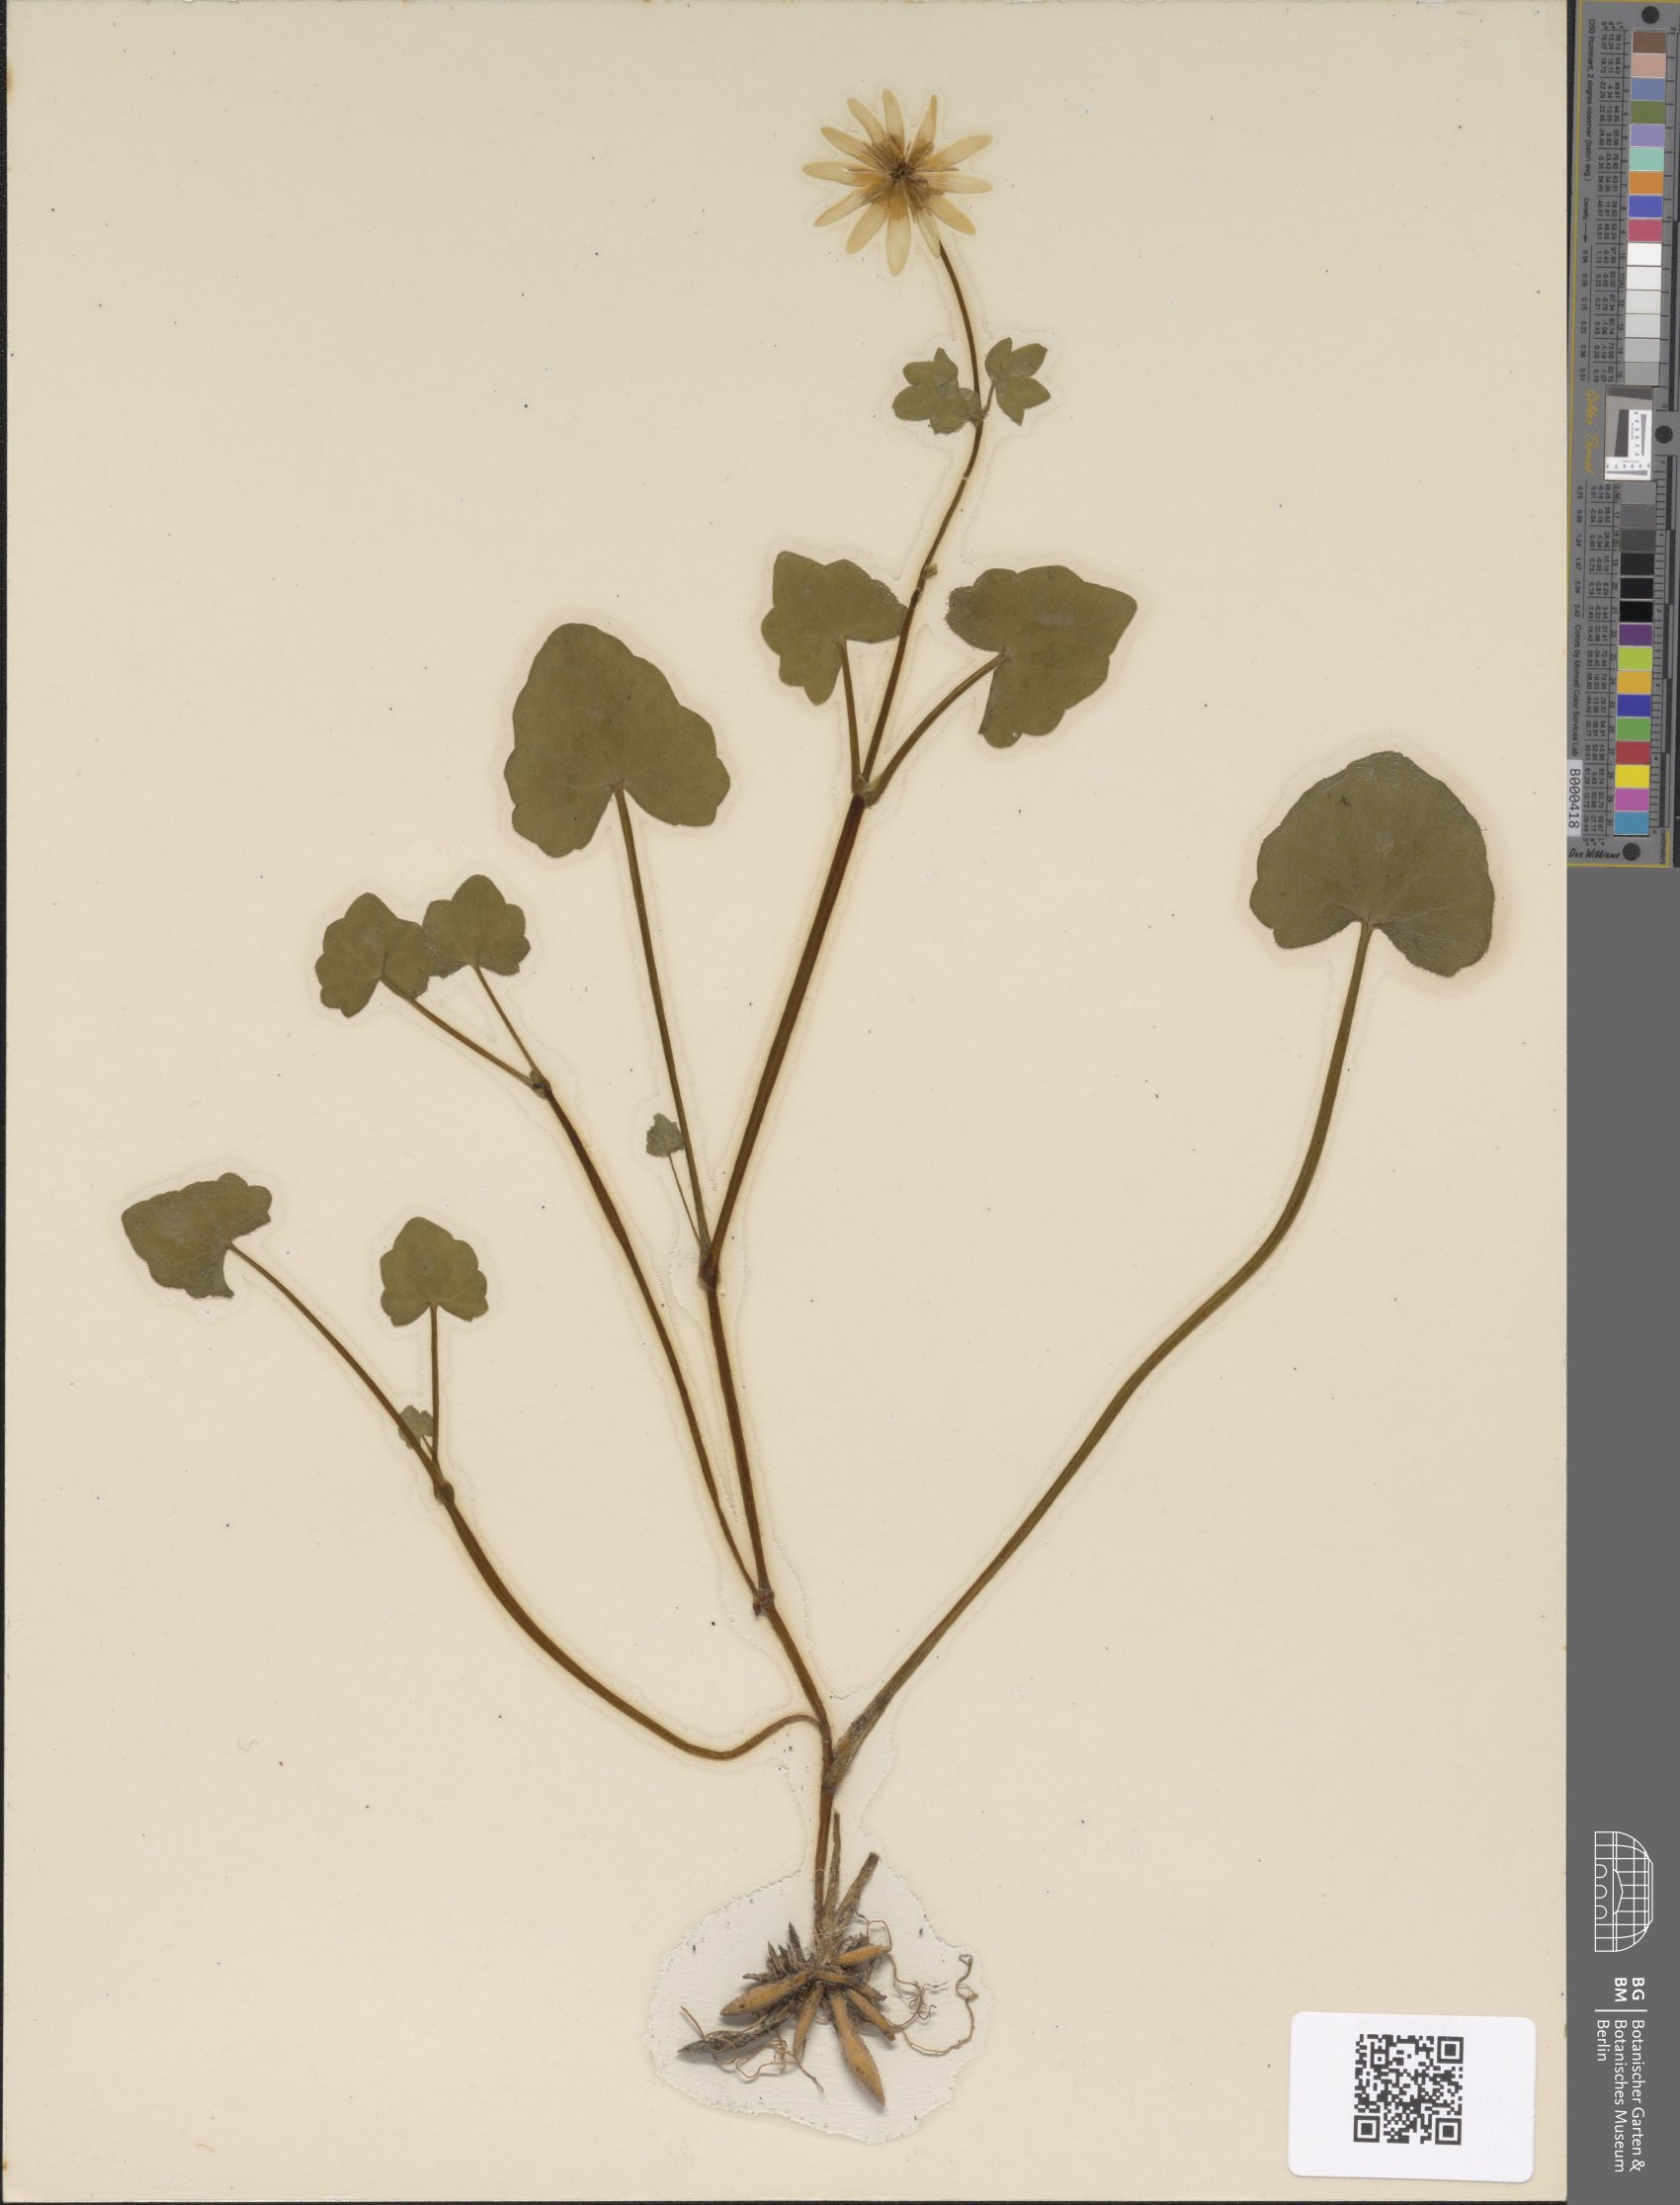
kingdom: Plantae
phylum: Tracheophyta
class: Magnoliopsida
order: Ranunculales
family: Ranunculaceae
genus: Ficaria
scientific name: Ficaria verna
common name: Lesser celandine
